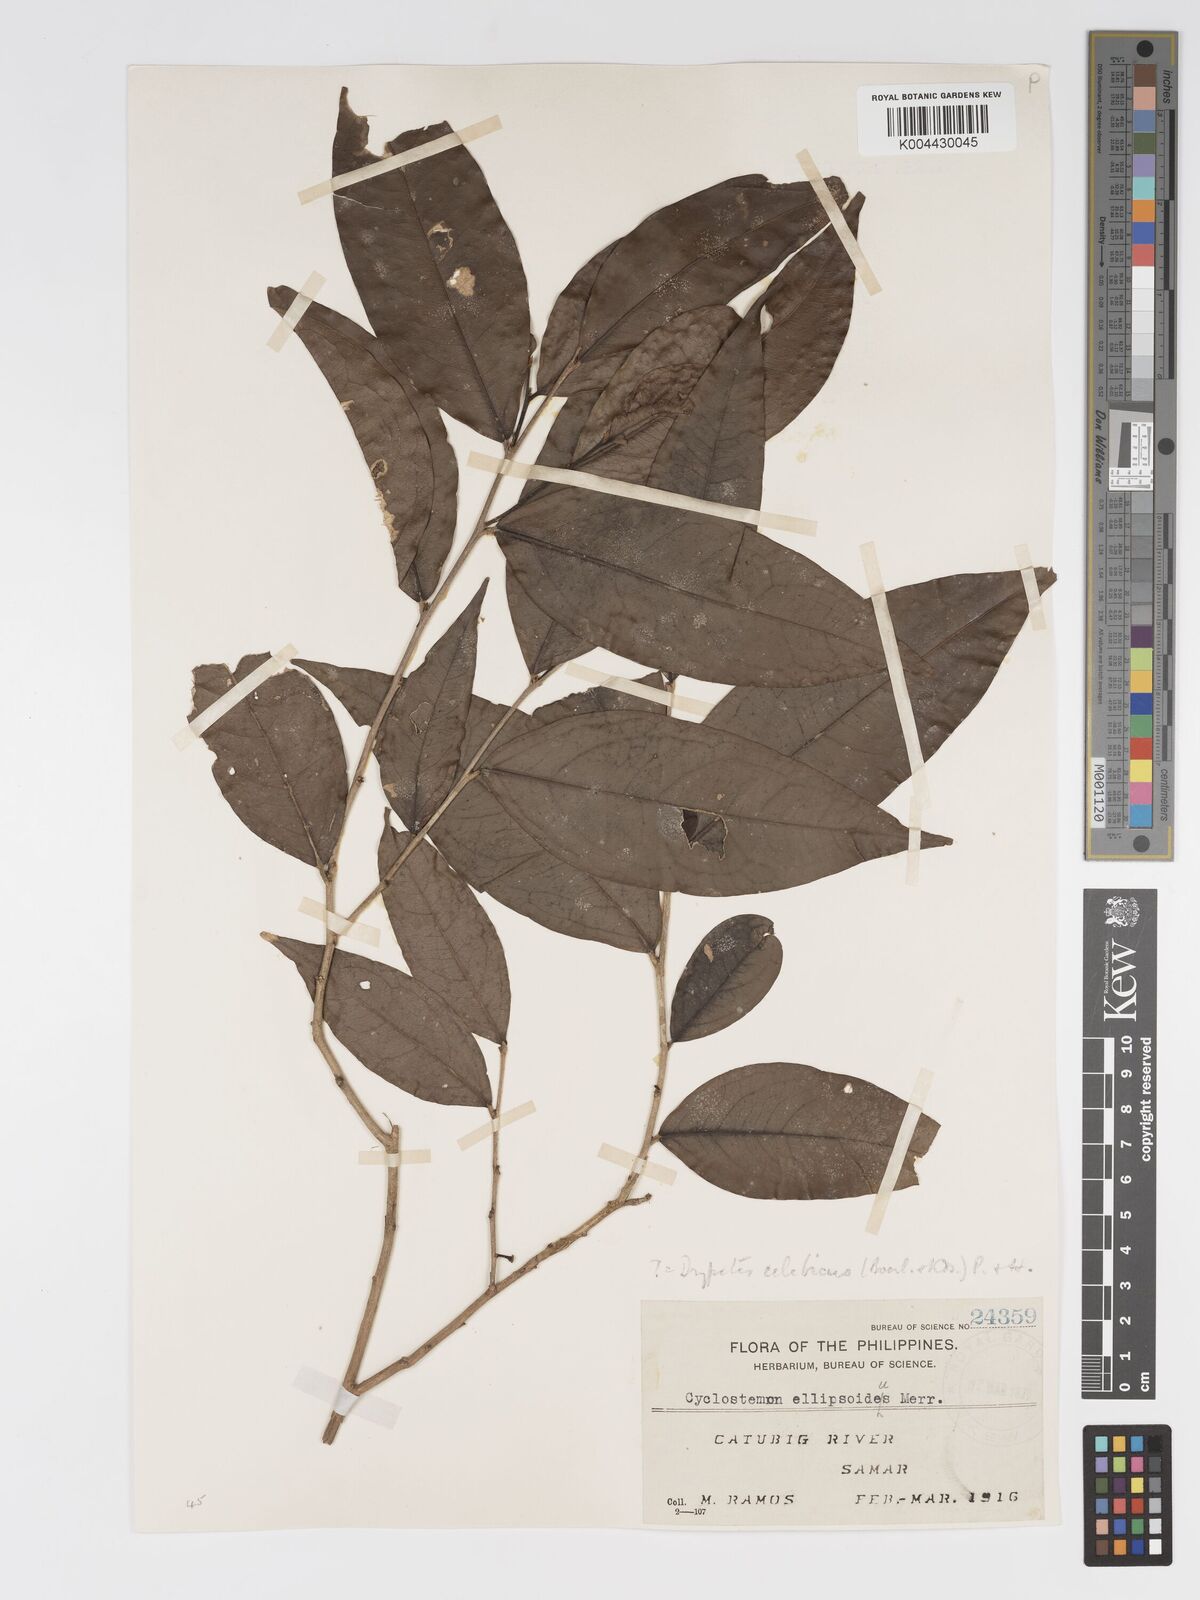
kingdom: Plantae
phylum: Tracheophyta
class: Magnoliopsida
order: Malpighiales
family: Putranjivaceae
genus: Drypetes
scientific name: Drypetes celebica
